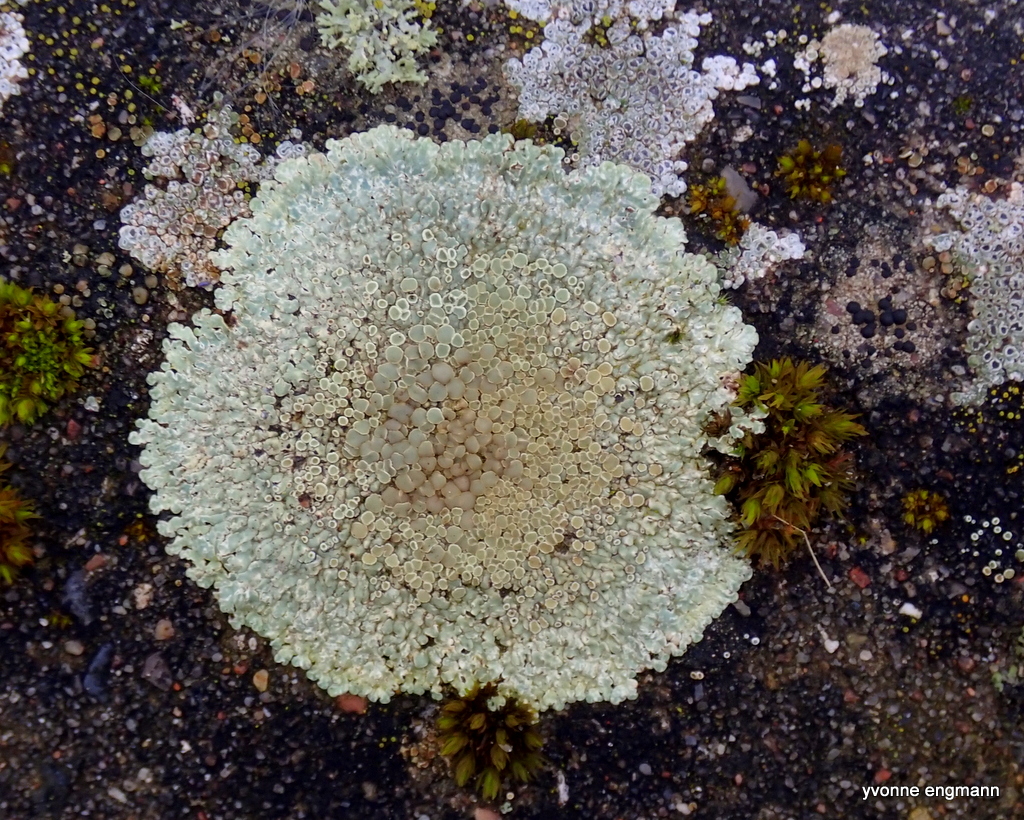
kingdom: Fungi
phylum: Ascomycota
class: Lecanoromycetes
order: Lecanorales
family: Lecanoraceae
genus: Protoparmeliopsis
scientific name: Protoparmeliopsis muralis
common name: randfliget kantskivelav
